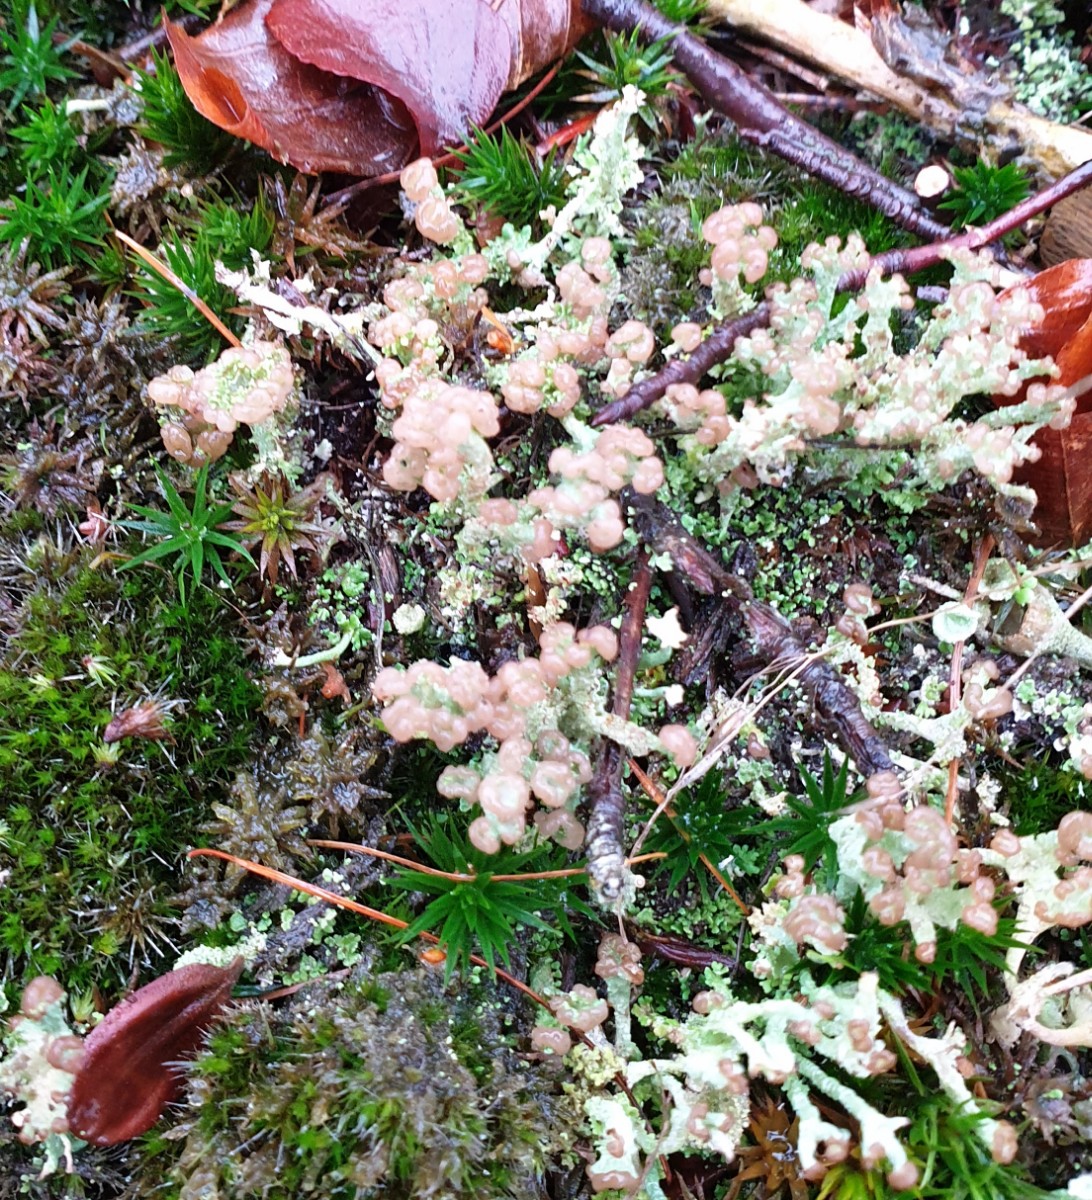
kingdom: Fungi
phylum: Ascomycota
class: Lecanoromycetes
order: Lecanorales
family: Cladoniaceae
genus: Cladonia
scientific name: Cladonia ramulosa
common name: kliddet bægerlav
